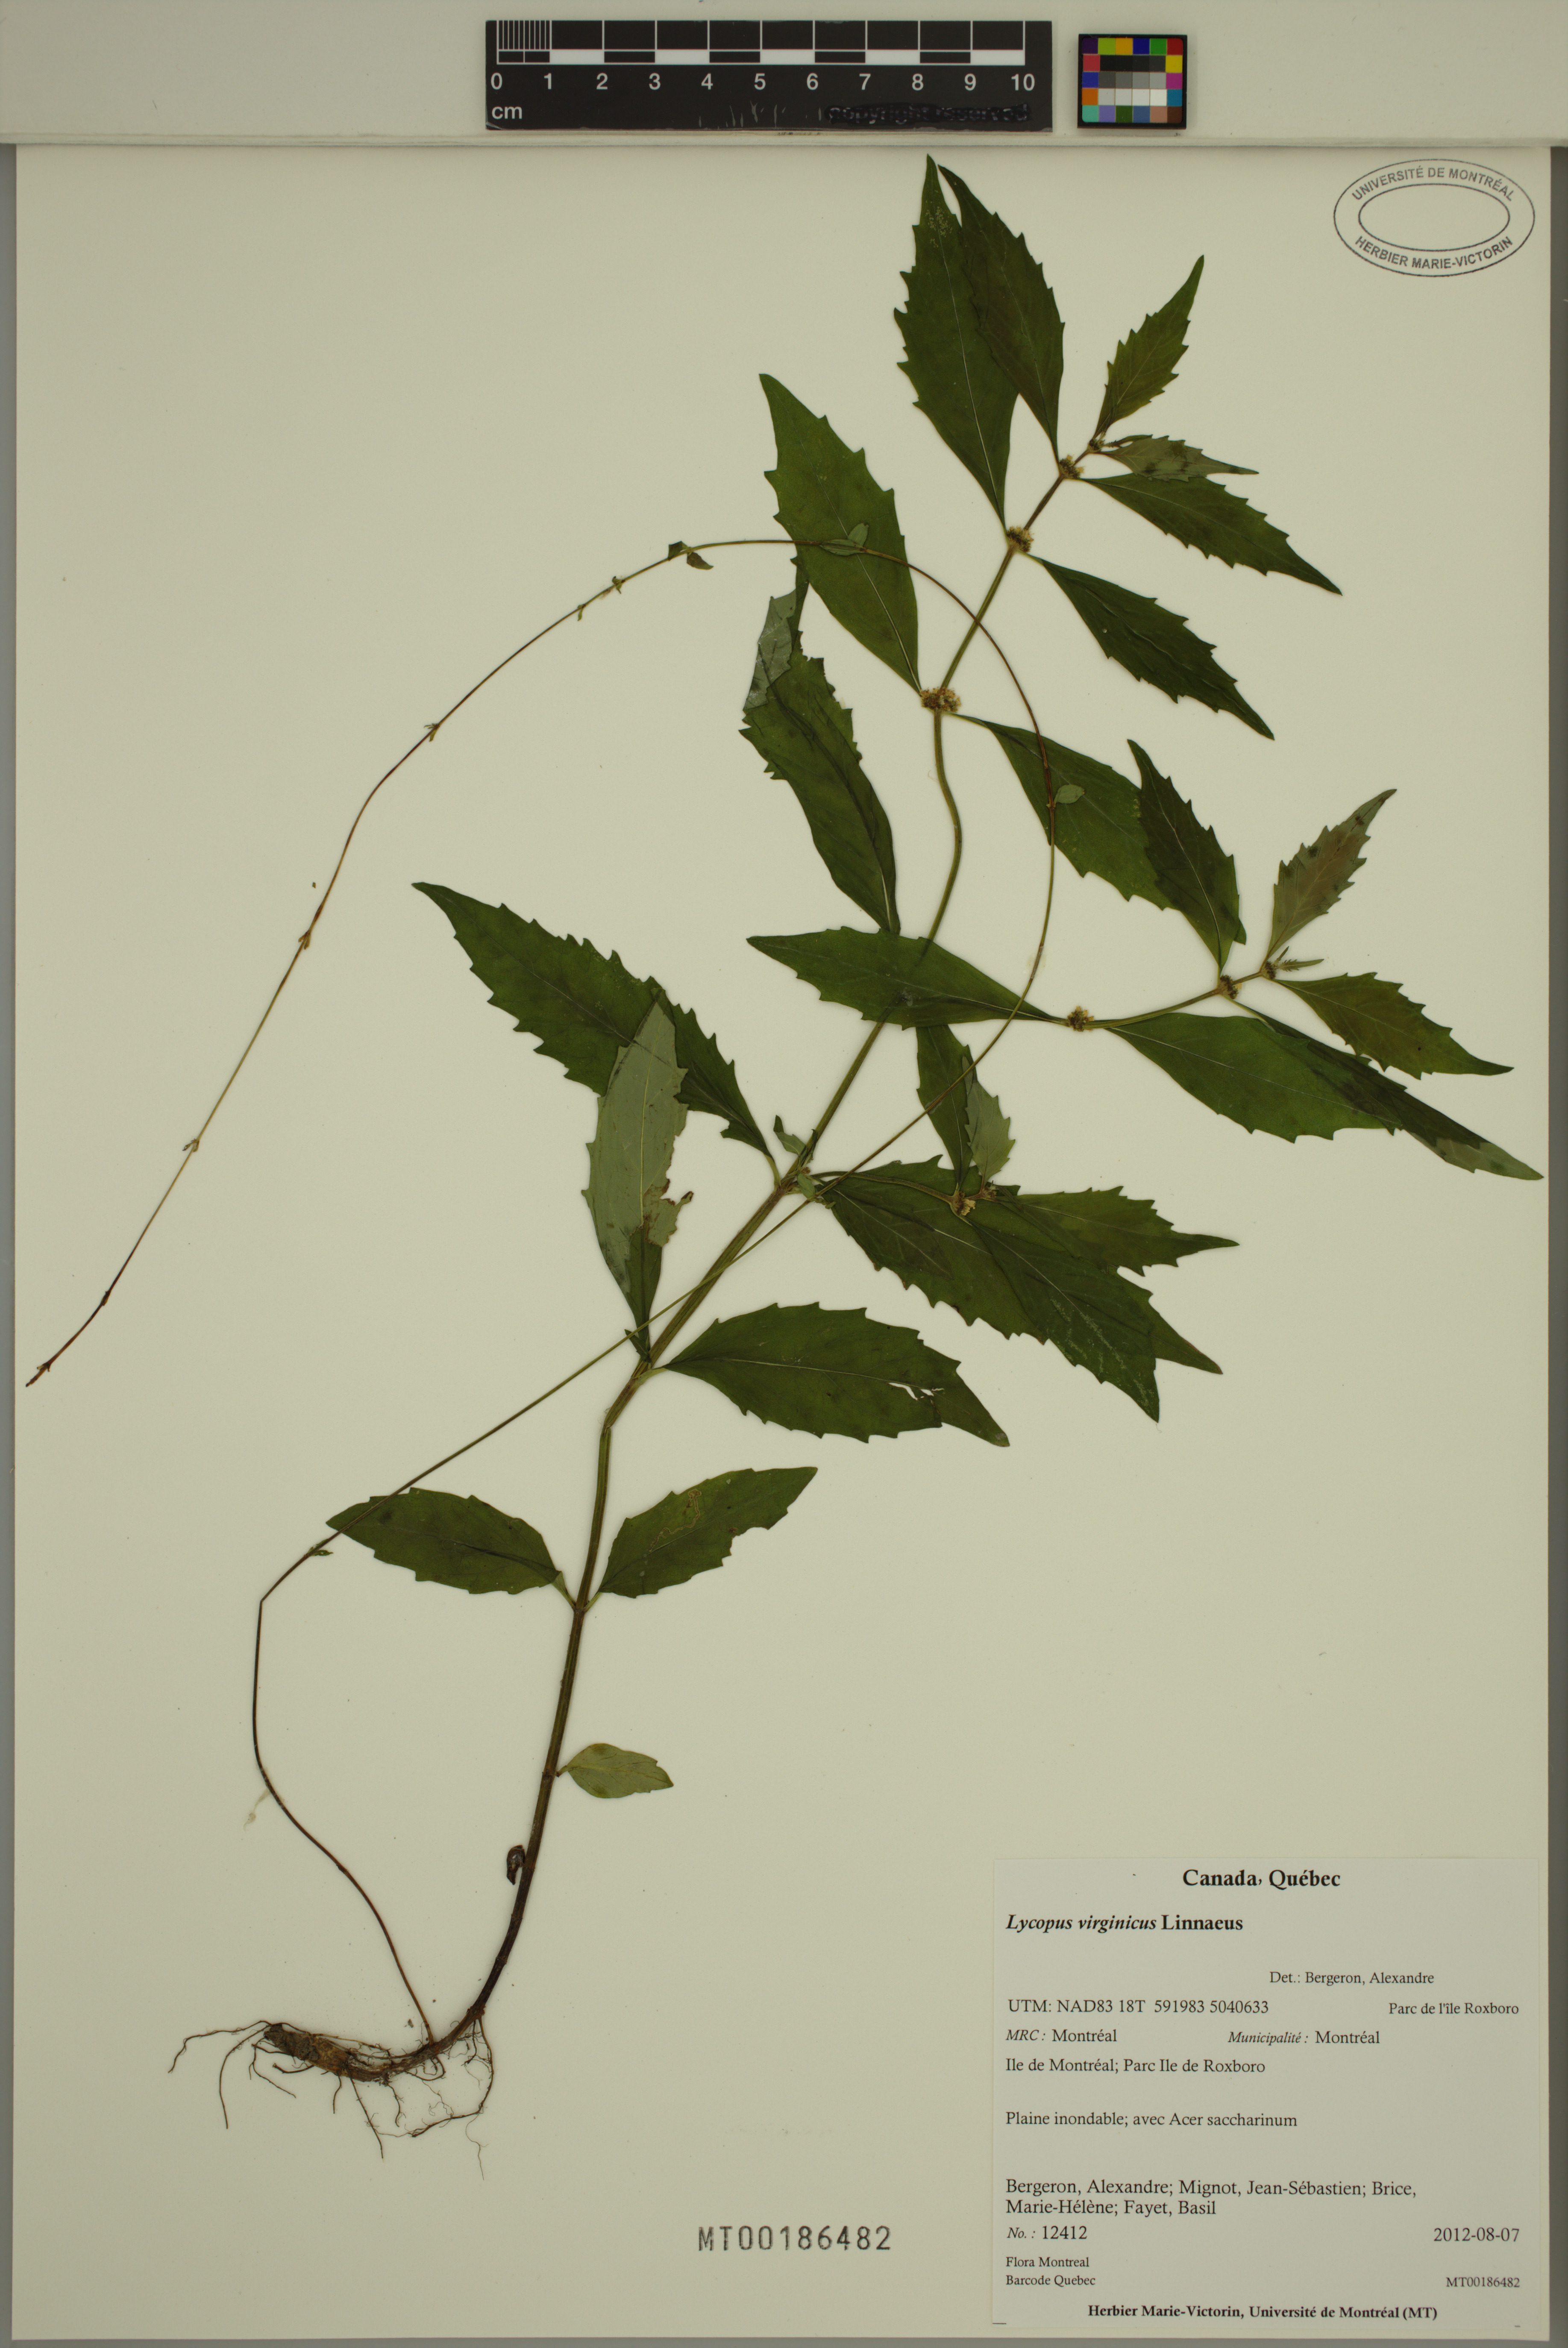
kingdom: Plantae
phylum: Tracheophyta
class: Magnoliopsida
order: Lamiales
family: Lamiaceae
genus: Lycopus
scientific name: Lycopus virginicus
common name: Bugleweed
